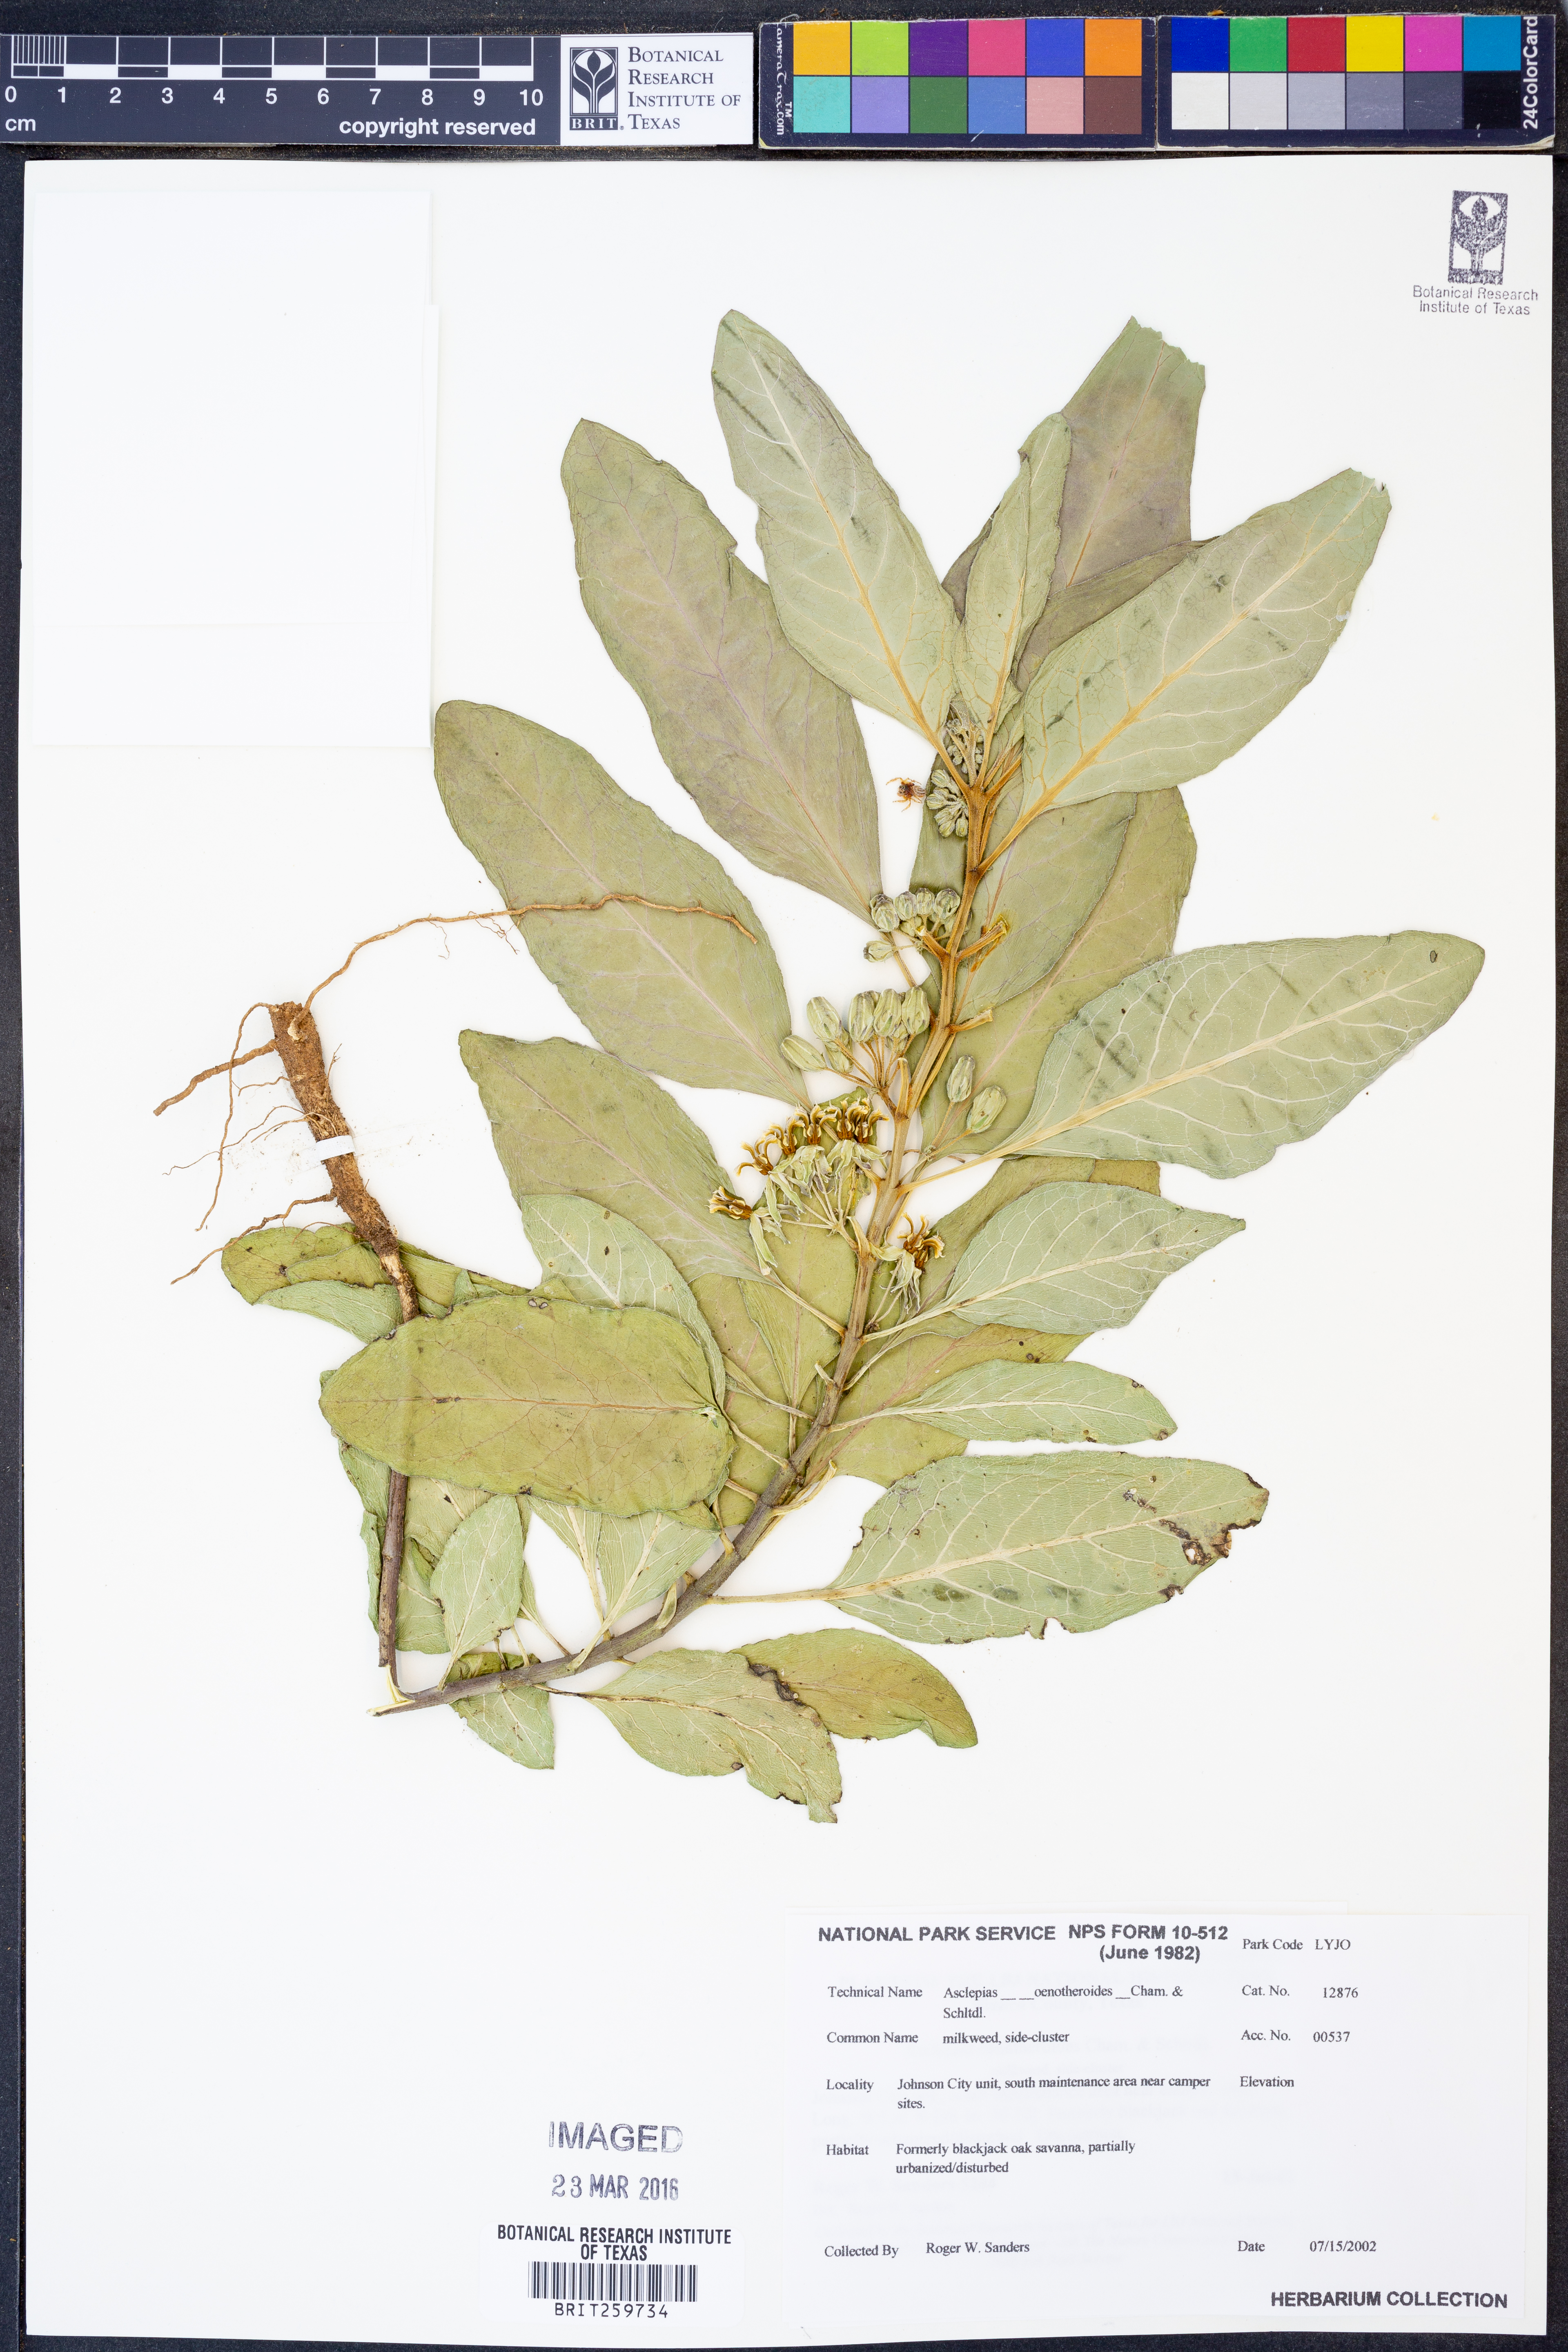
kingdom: Plantae
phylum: Tracheophyta
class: Magnoliopsida
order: Gentianales
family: Apocynaceae
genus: Asclepias
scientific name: Asclepias oenotheroides
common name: Zizotes milkweed
